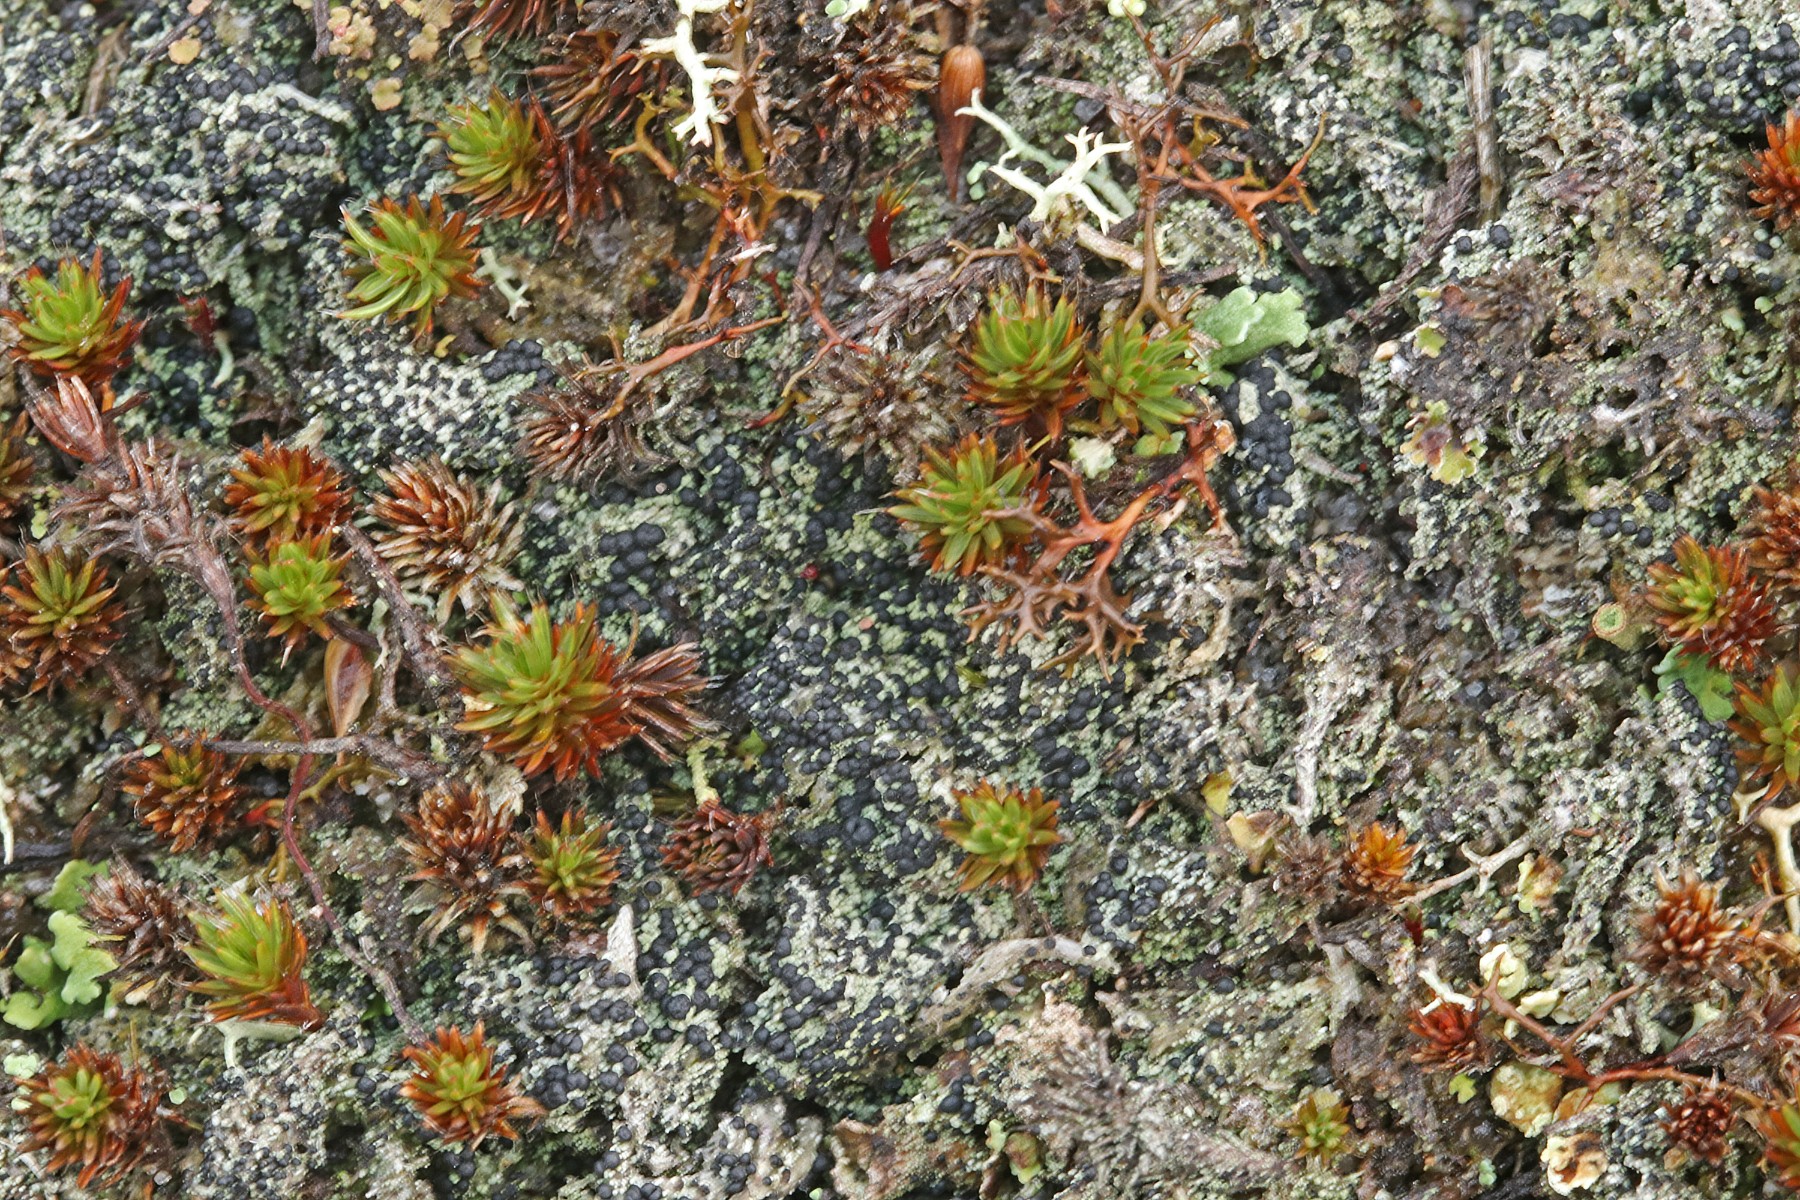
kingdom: Fungi
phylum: Ascomycota
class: Lecanoromycetes
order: Lecanorales
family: Byssolomataceae
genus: Micarea
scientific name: Micarea lignaria
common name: tørve-knaplav
